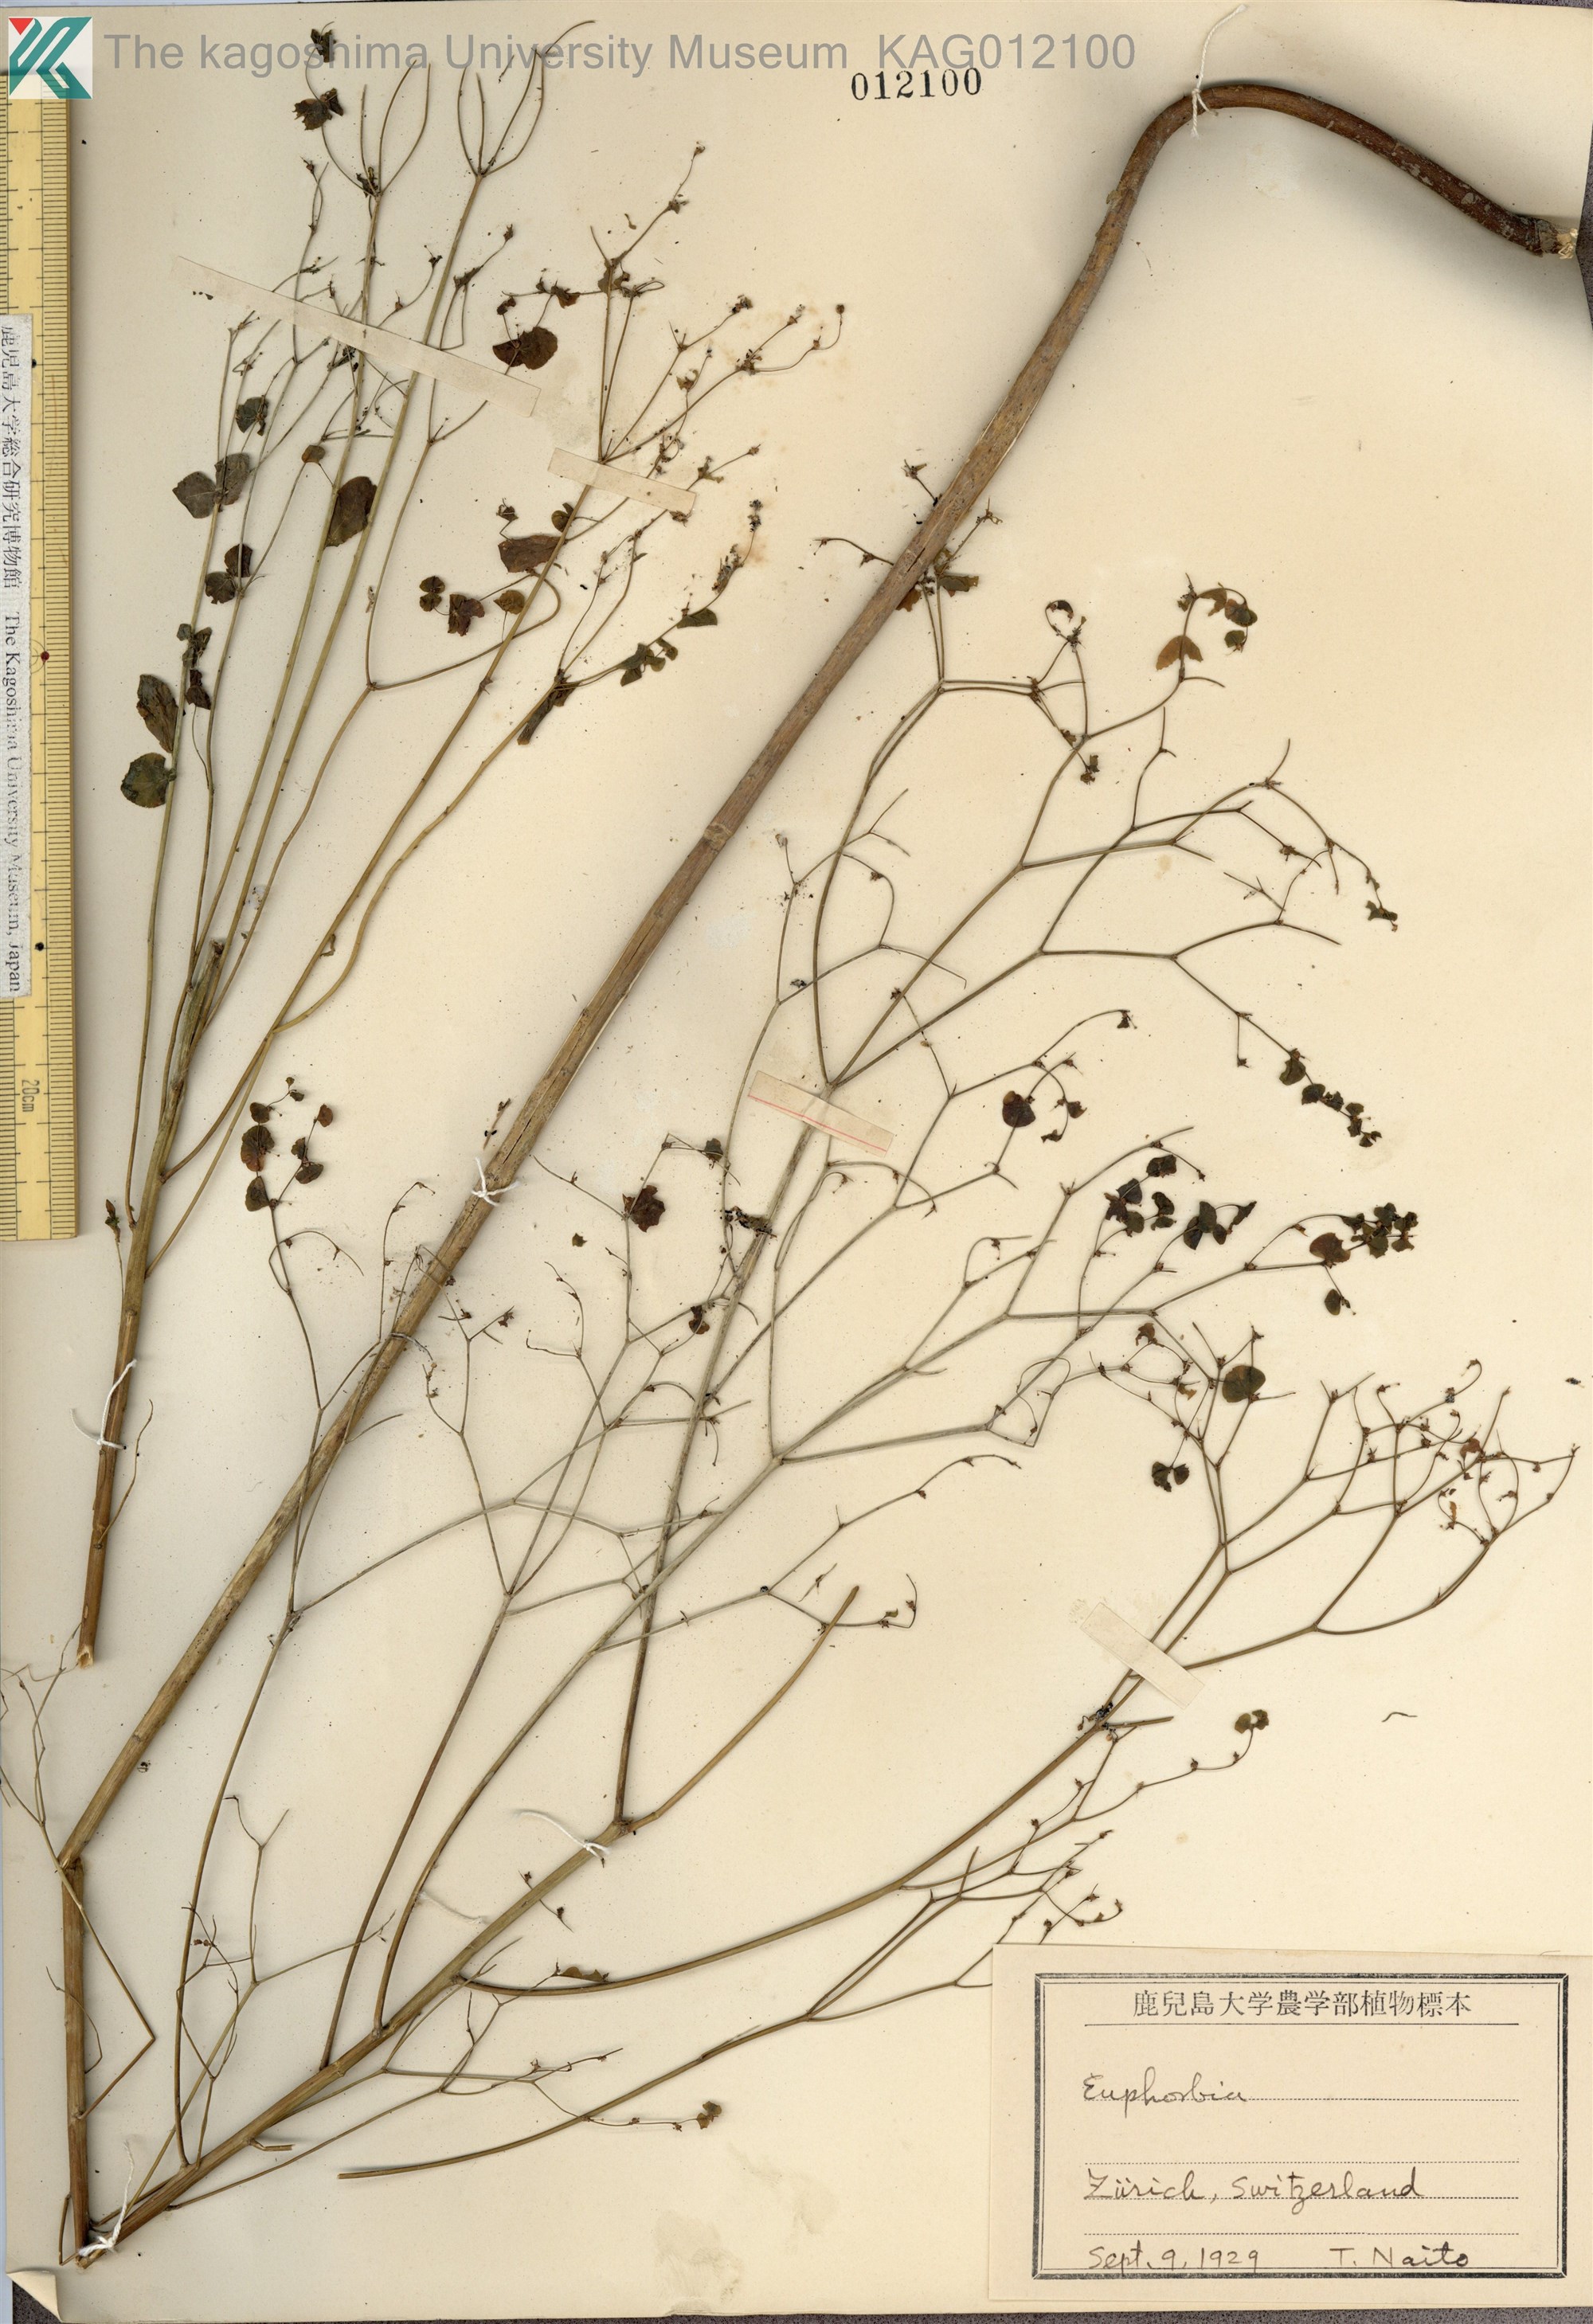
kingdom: Plantae
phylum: Tracheophyta
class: Magnoliopsida
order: Malpighiales
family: Euphorbiaceae
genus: Euphorbia
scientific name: Euphorbia peplus
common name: Petty spurge
